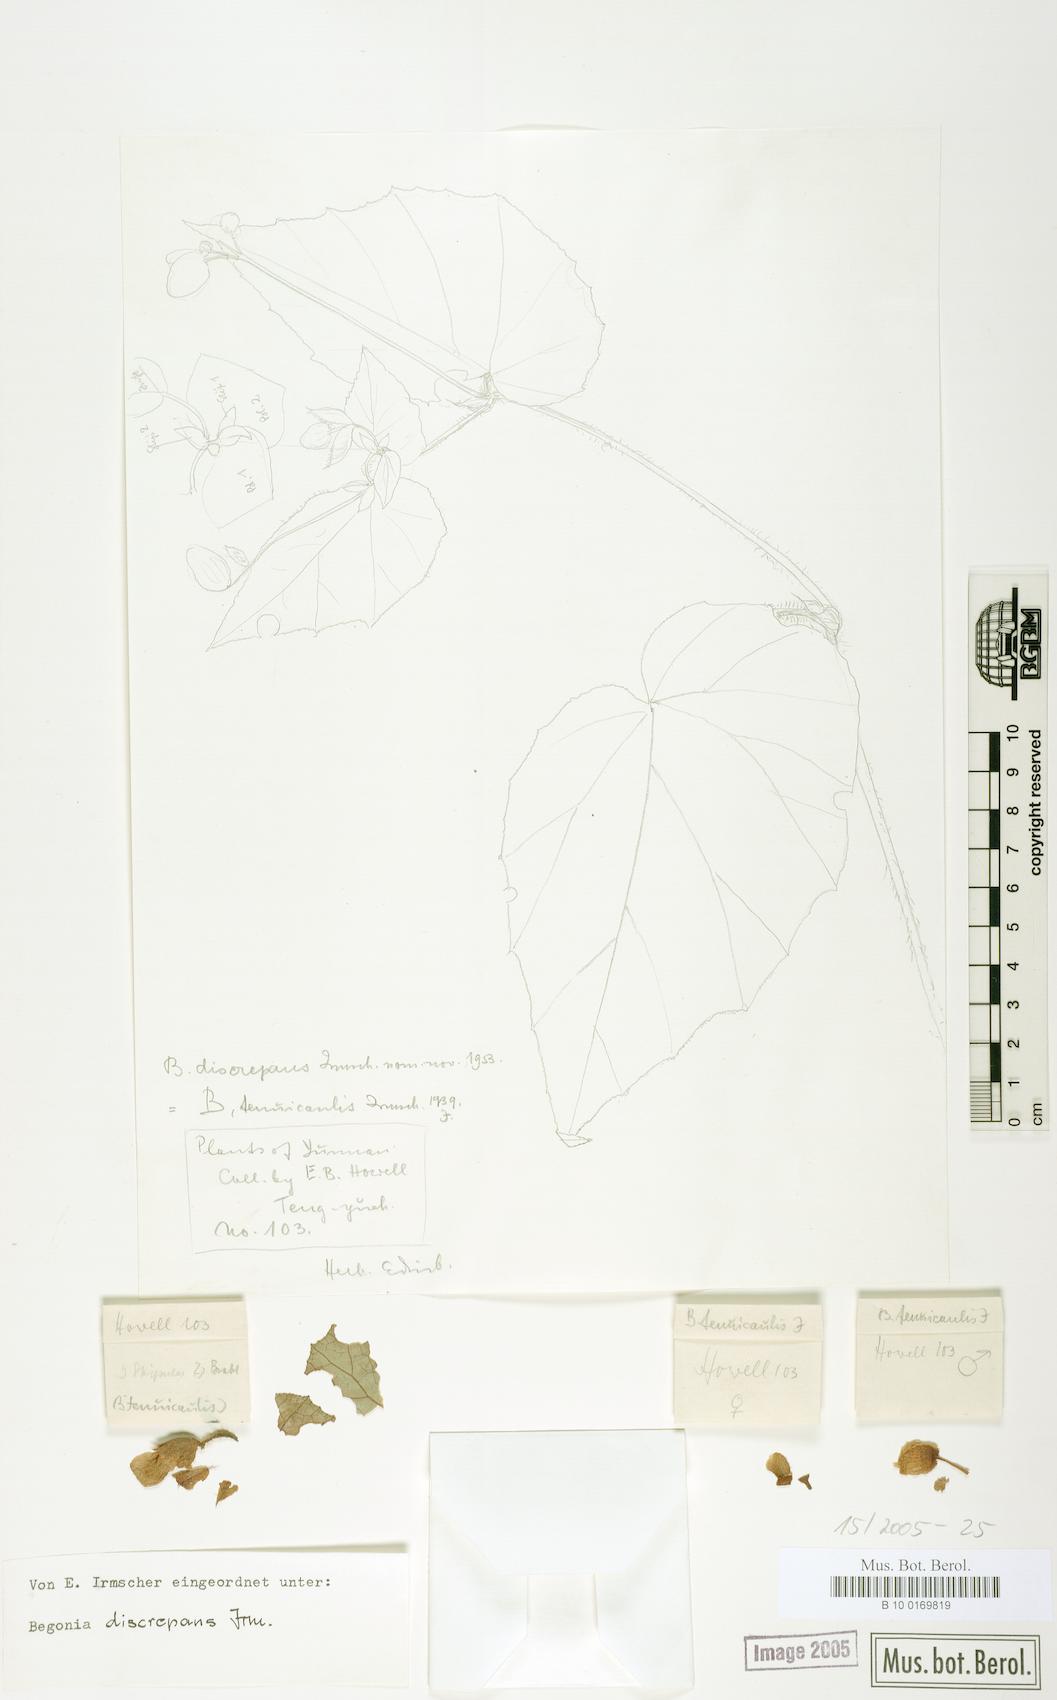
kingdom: Plantae
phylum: Tracheophyta
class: Magnoliopsida
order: Cucurbitales
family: Begoniaceae
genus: Begonia
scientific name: Begonia discrepans
